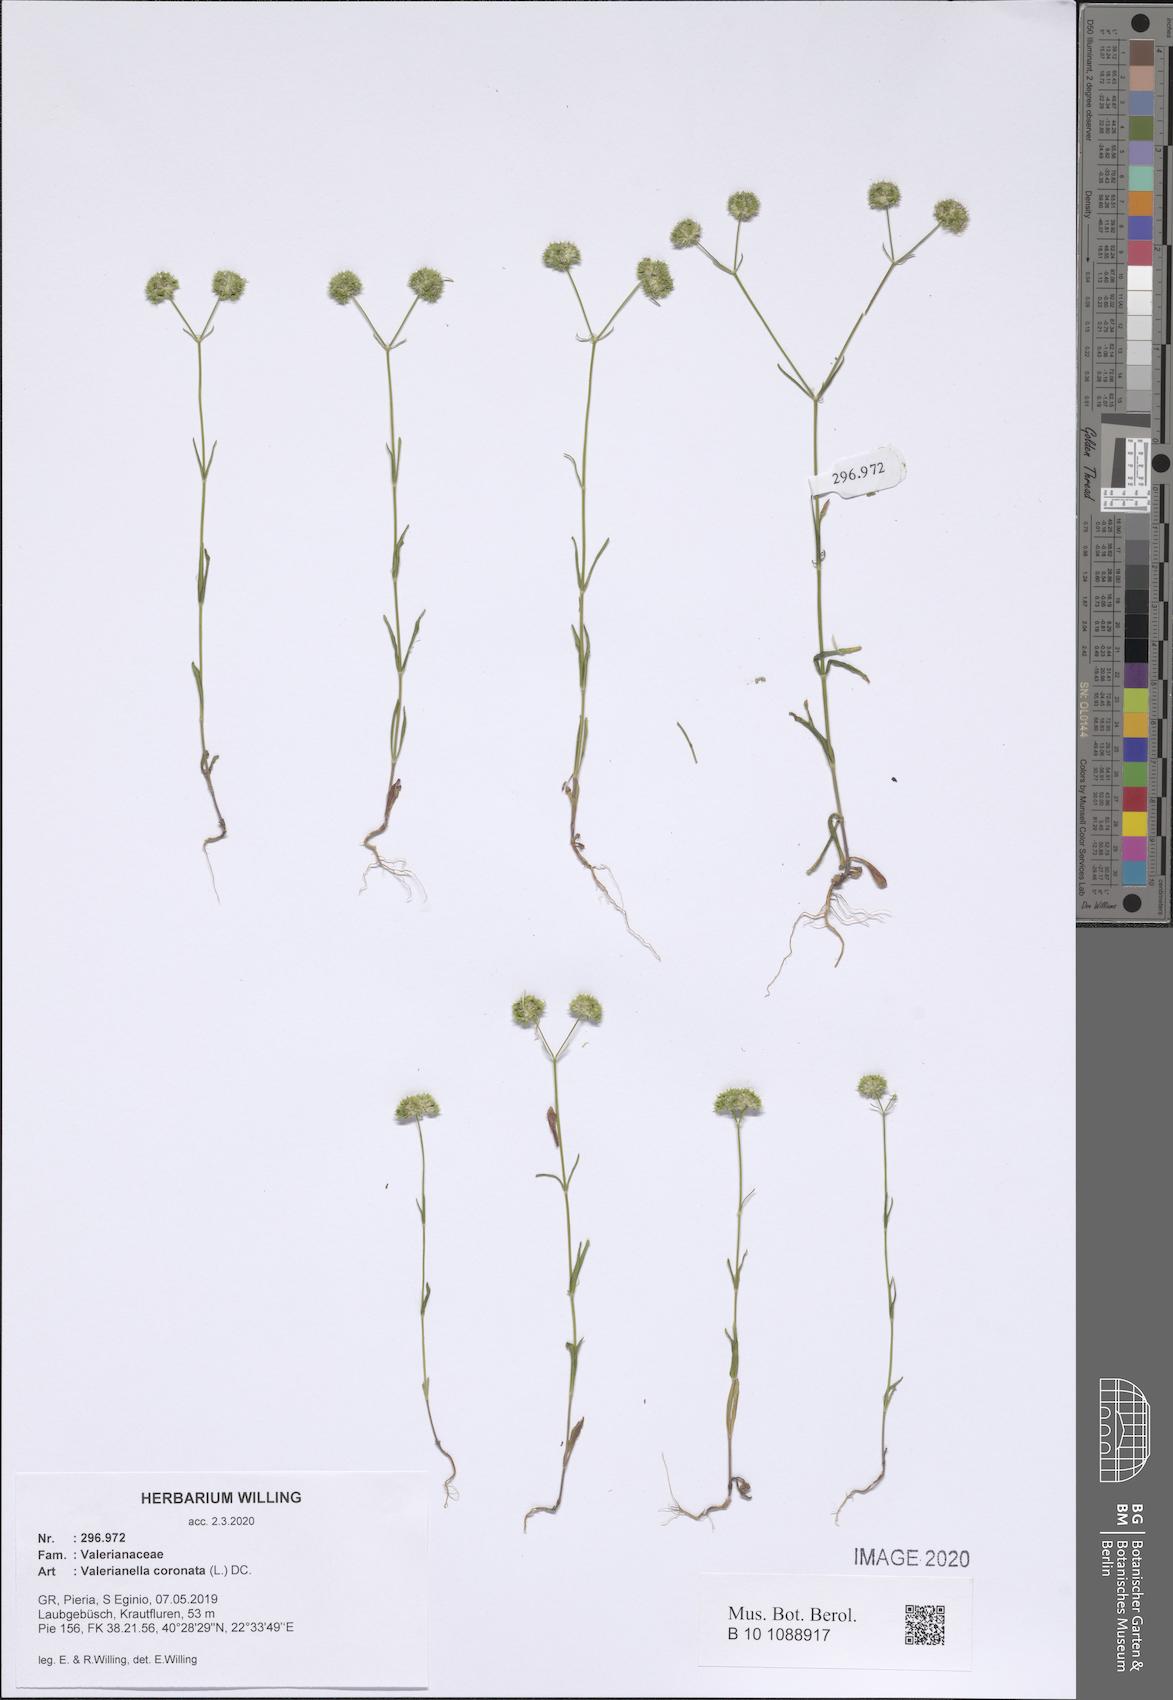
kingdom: Plantae
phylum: Tracheophyta
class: Magnoliopsida
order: Dipsacales
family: Caprifoliaceae
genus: Valerianella
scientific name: Valerianella coronata
